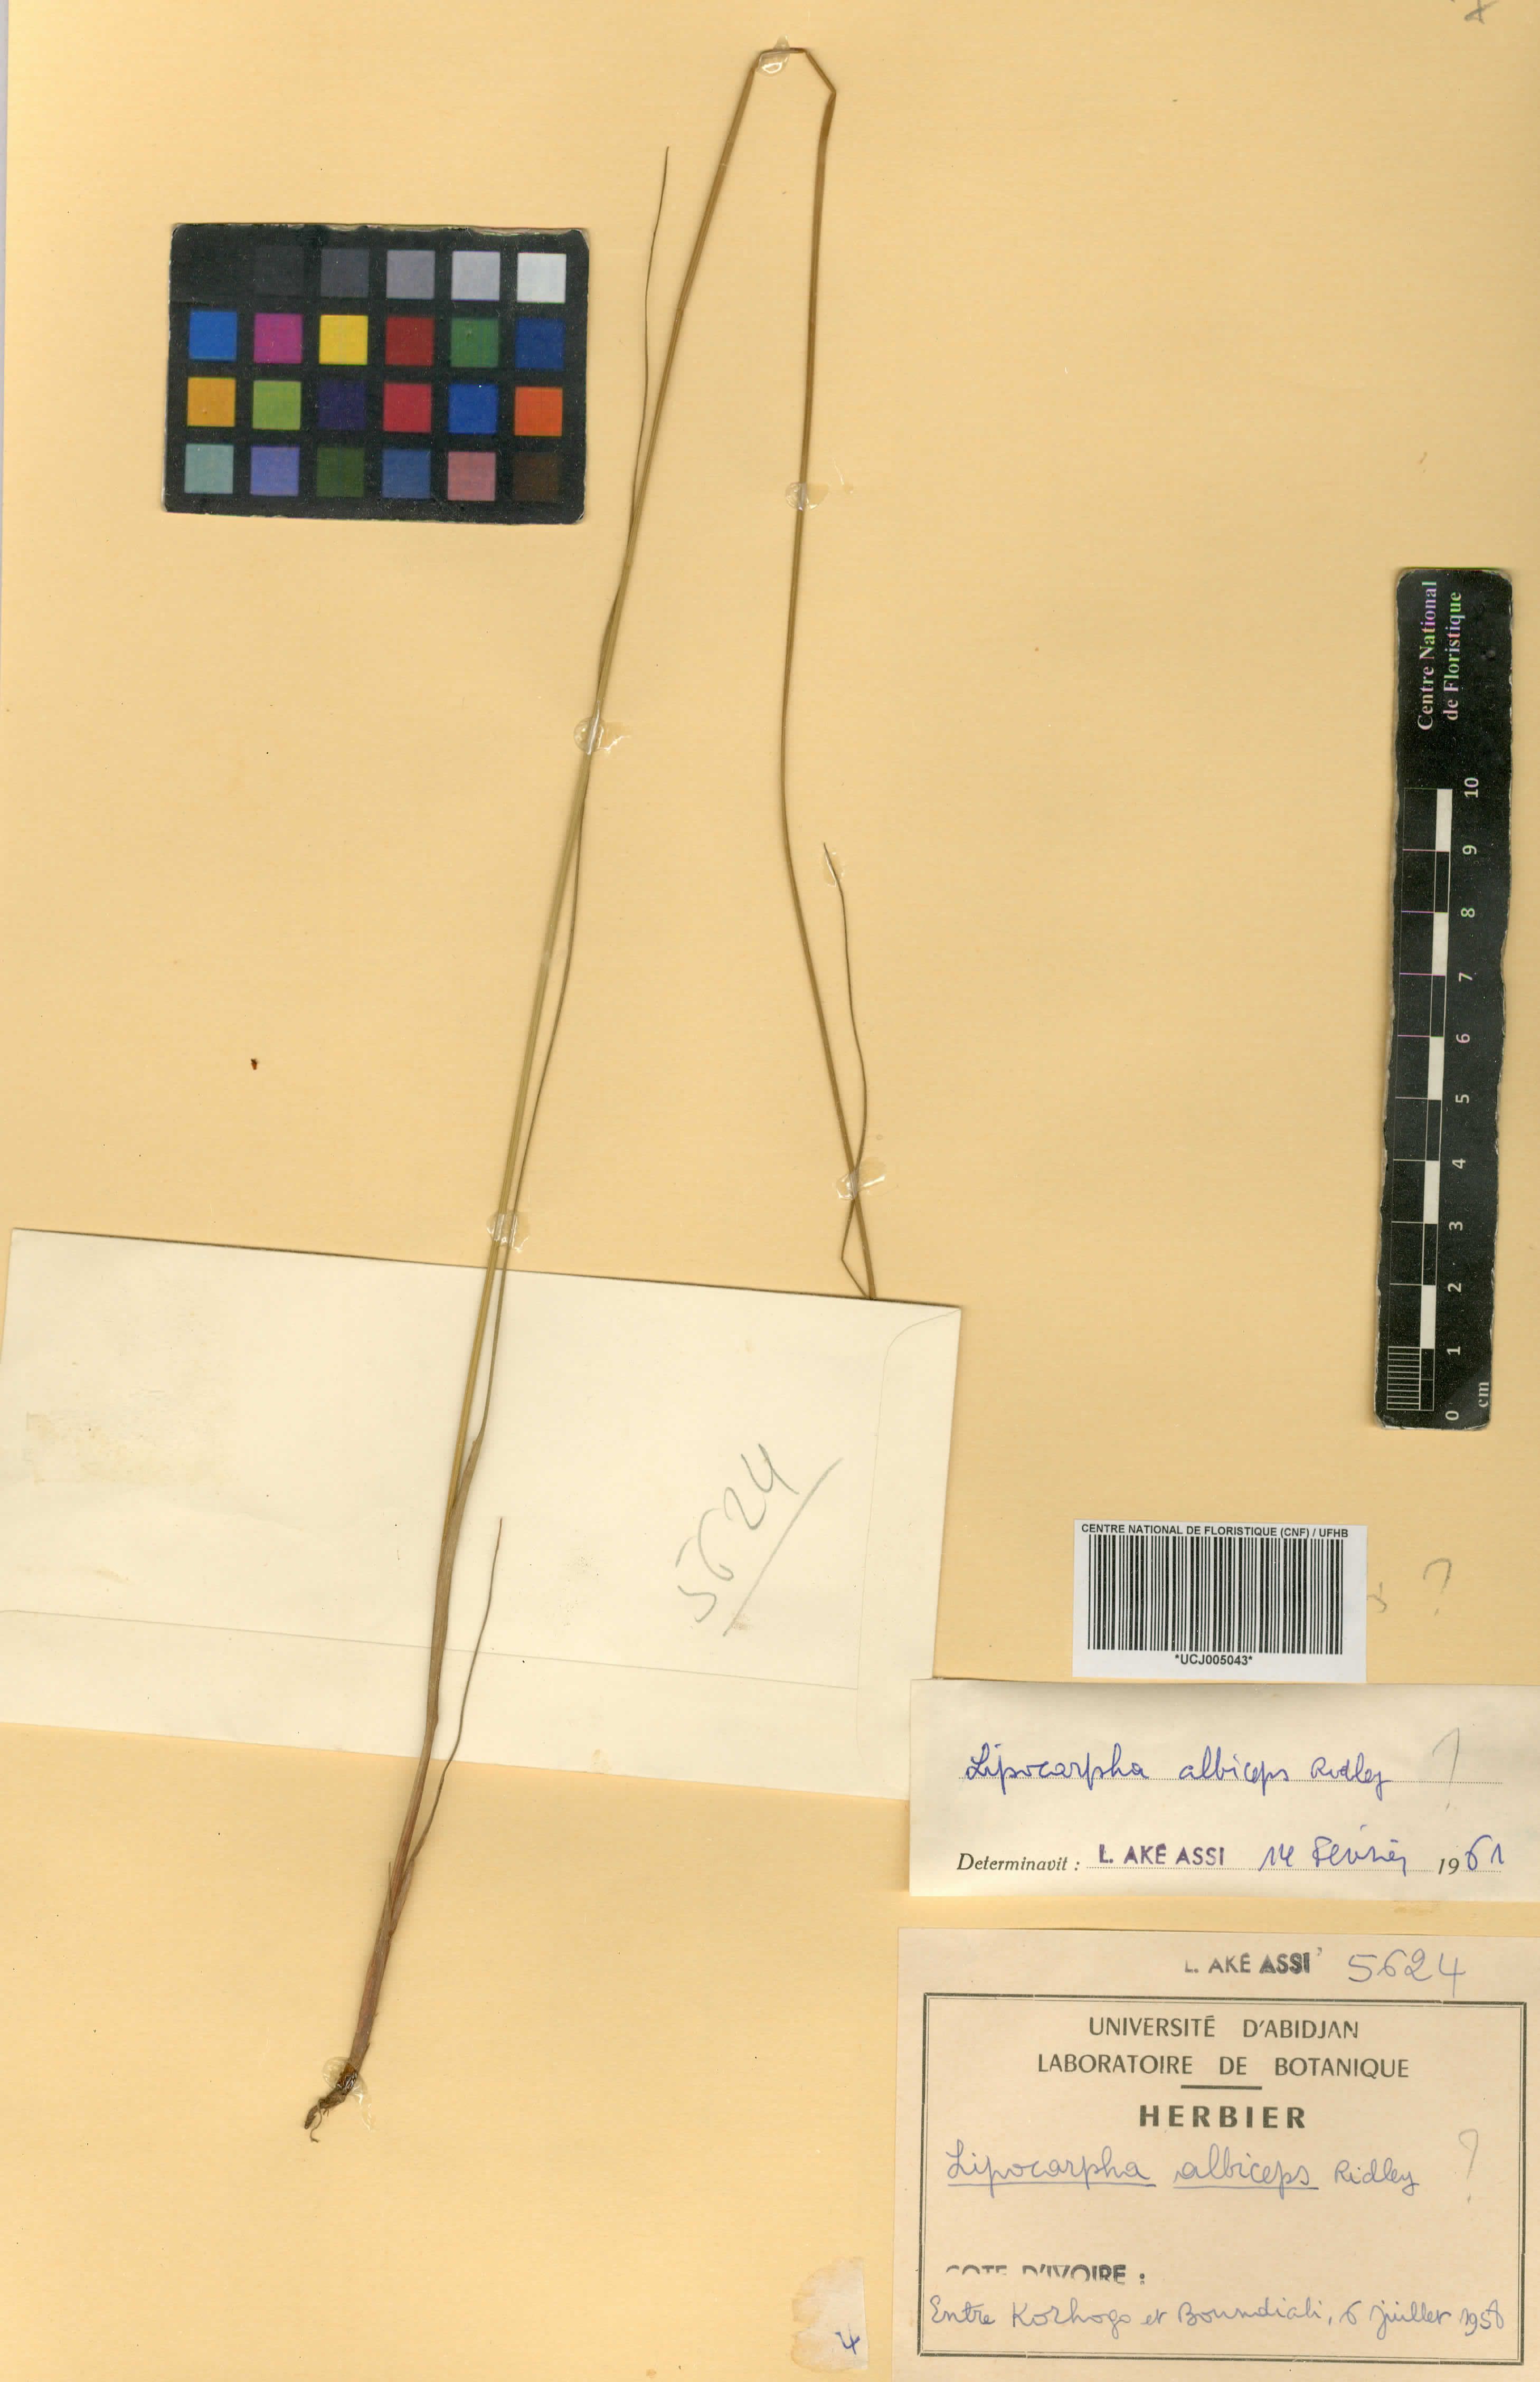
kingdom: Plantae
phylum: Tracheophyta
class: Liliopsida
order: Poales
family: Cyperaceae
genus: Cyperus
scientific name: Cyperus purpureoluteus
